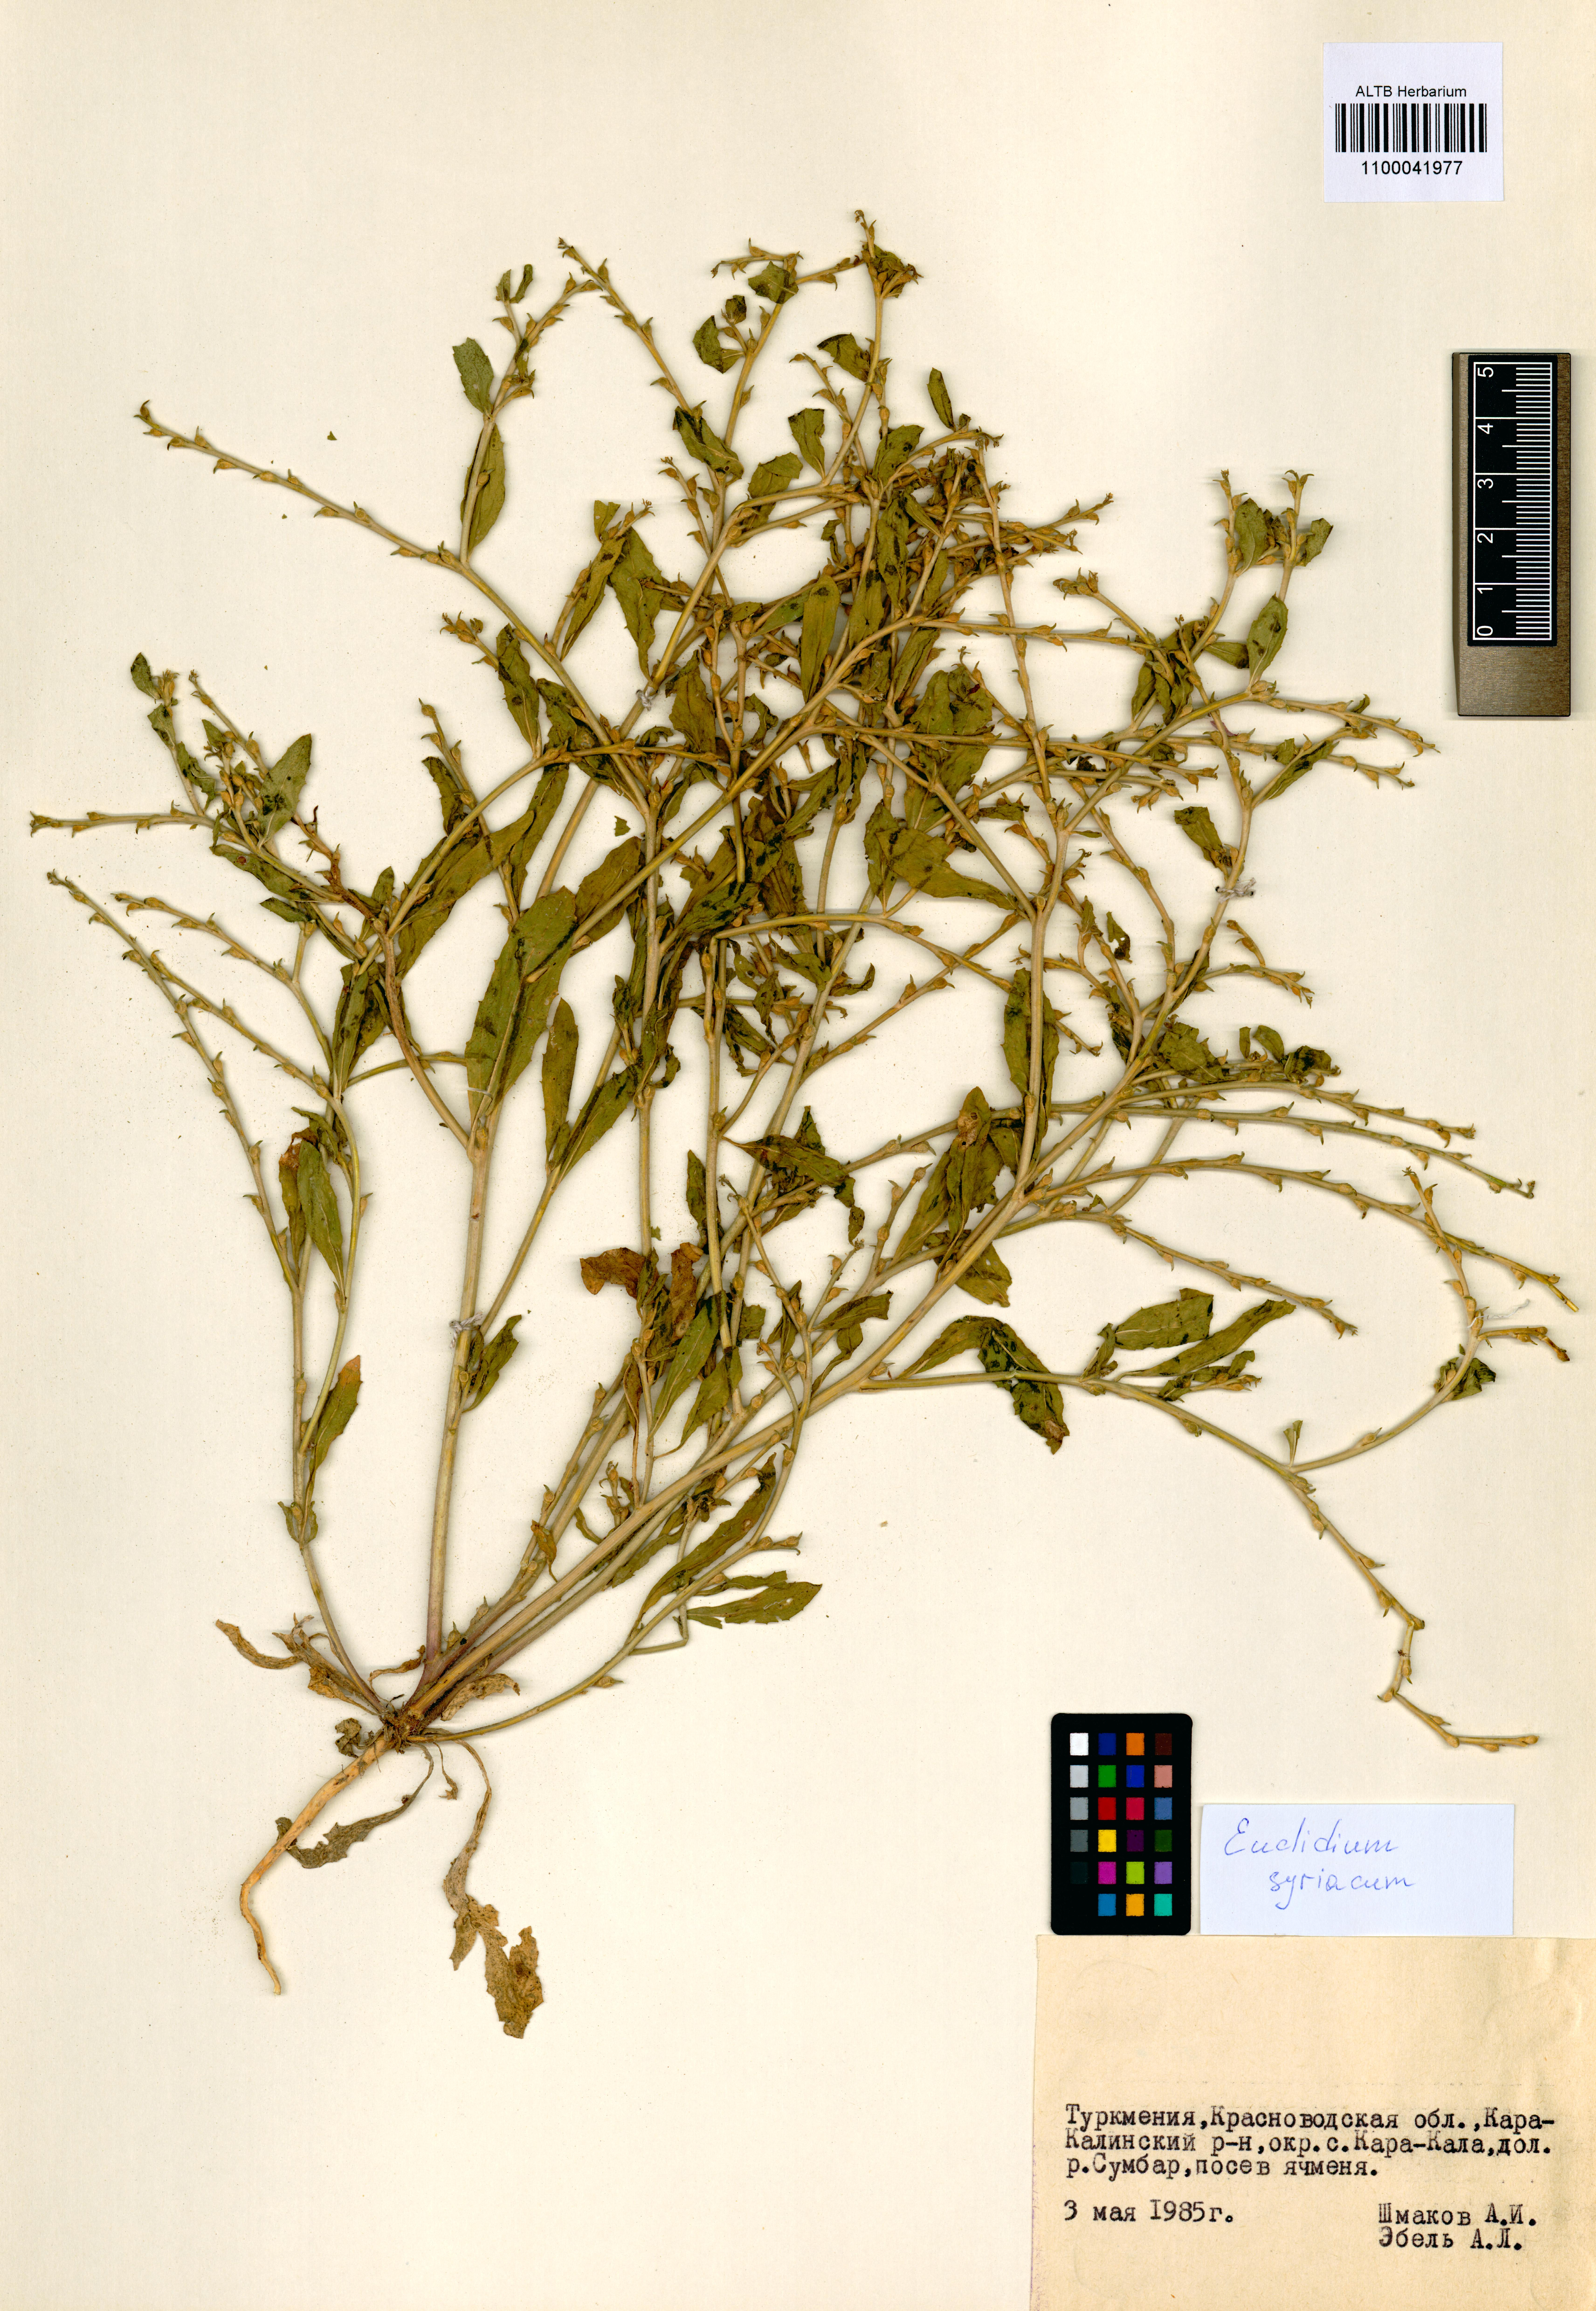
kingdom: Plantae
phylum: Tracheophyta
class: Magnoliopsida
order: Brassicales
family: Brassicaceae
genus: Euclidium
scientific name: Euclidium syriacum
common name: Syrian mustard
